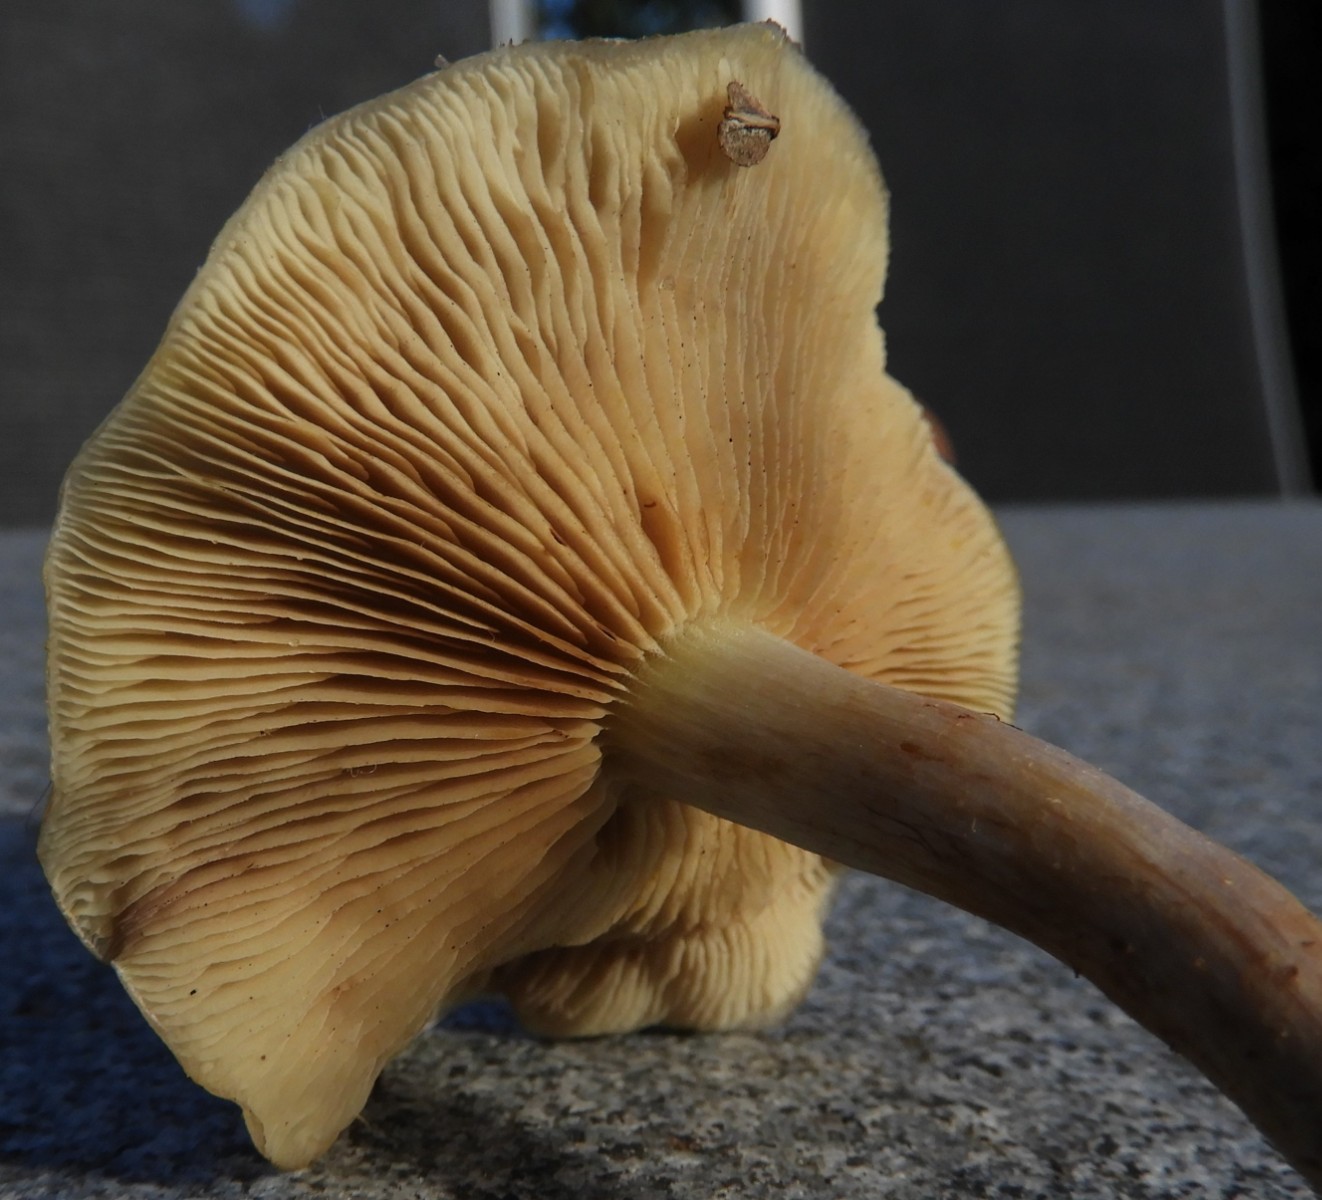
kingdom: Fungi
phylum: Basidiomycota
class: Agaricomycetes
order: Agaricales
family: Strophariaceae
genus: Pholiota
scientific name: Pholiota lenta
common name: løv-skælhat
